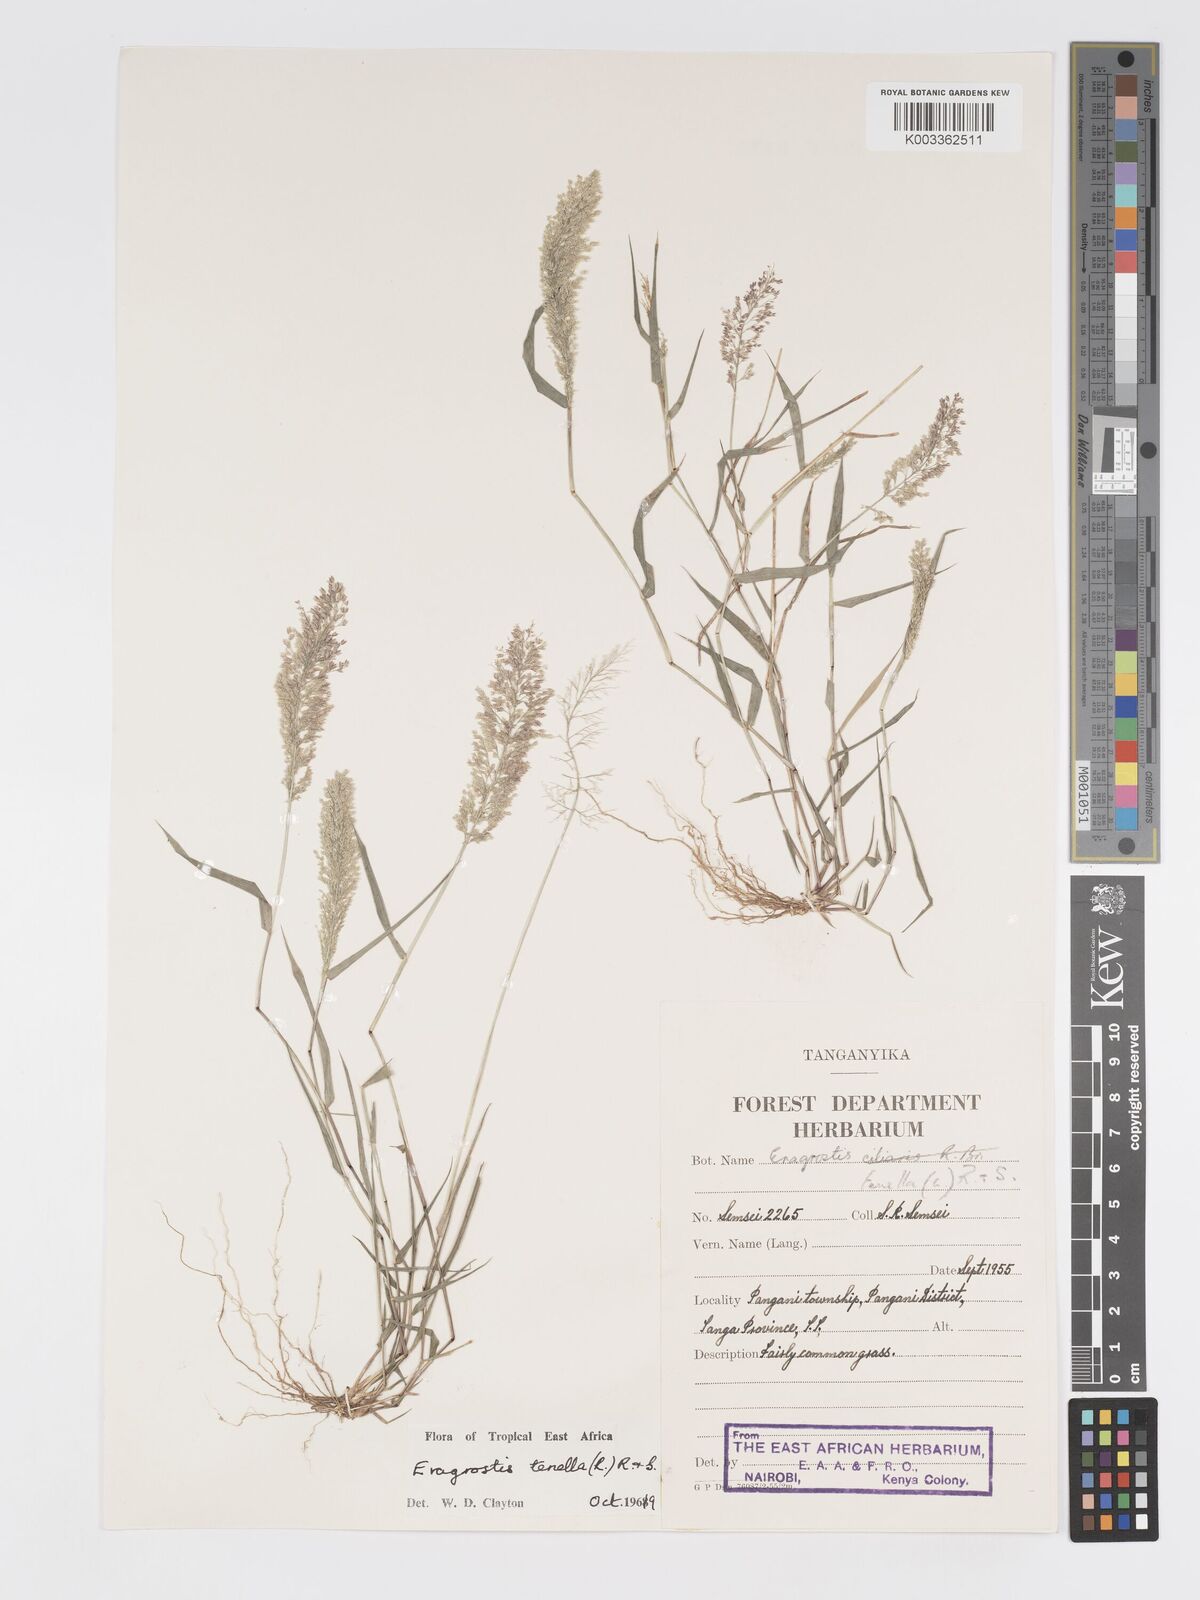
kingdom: Plantae
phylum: Tracheophyta
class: Liliopsida
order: Poales
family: Poaceae
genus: Eragrostis
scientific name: Eragrostis tenella
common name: Japanese lovegrass
